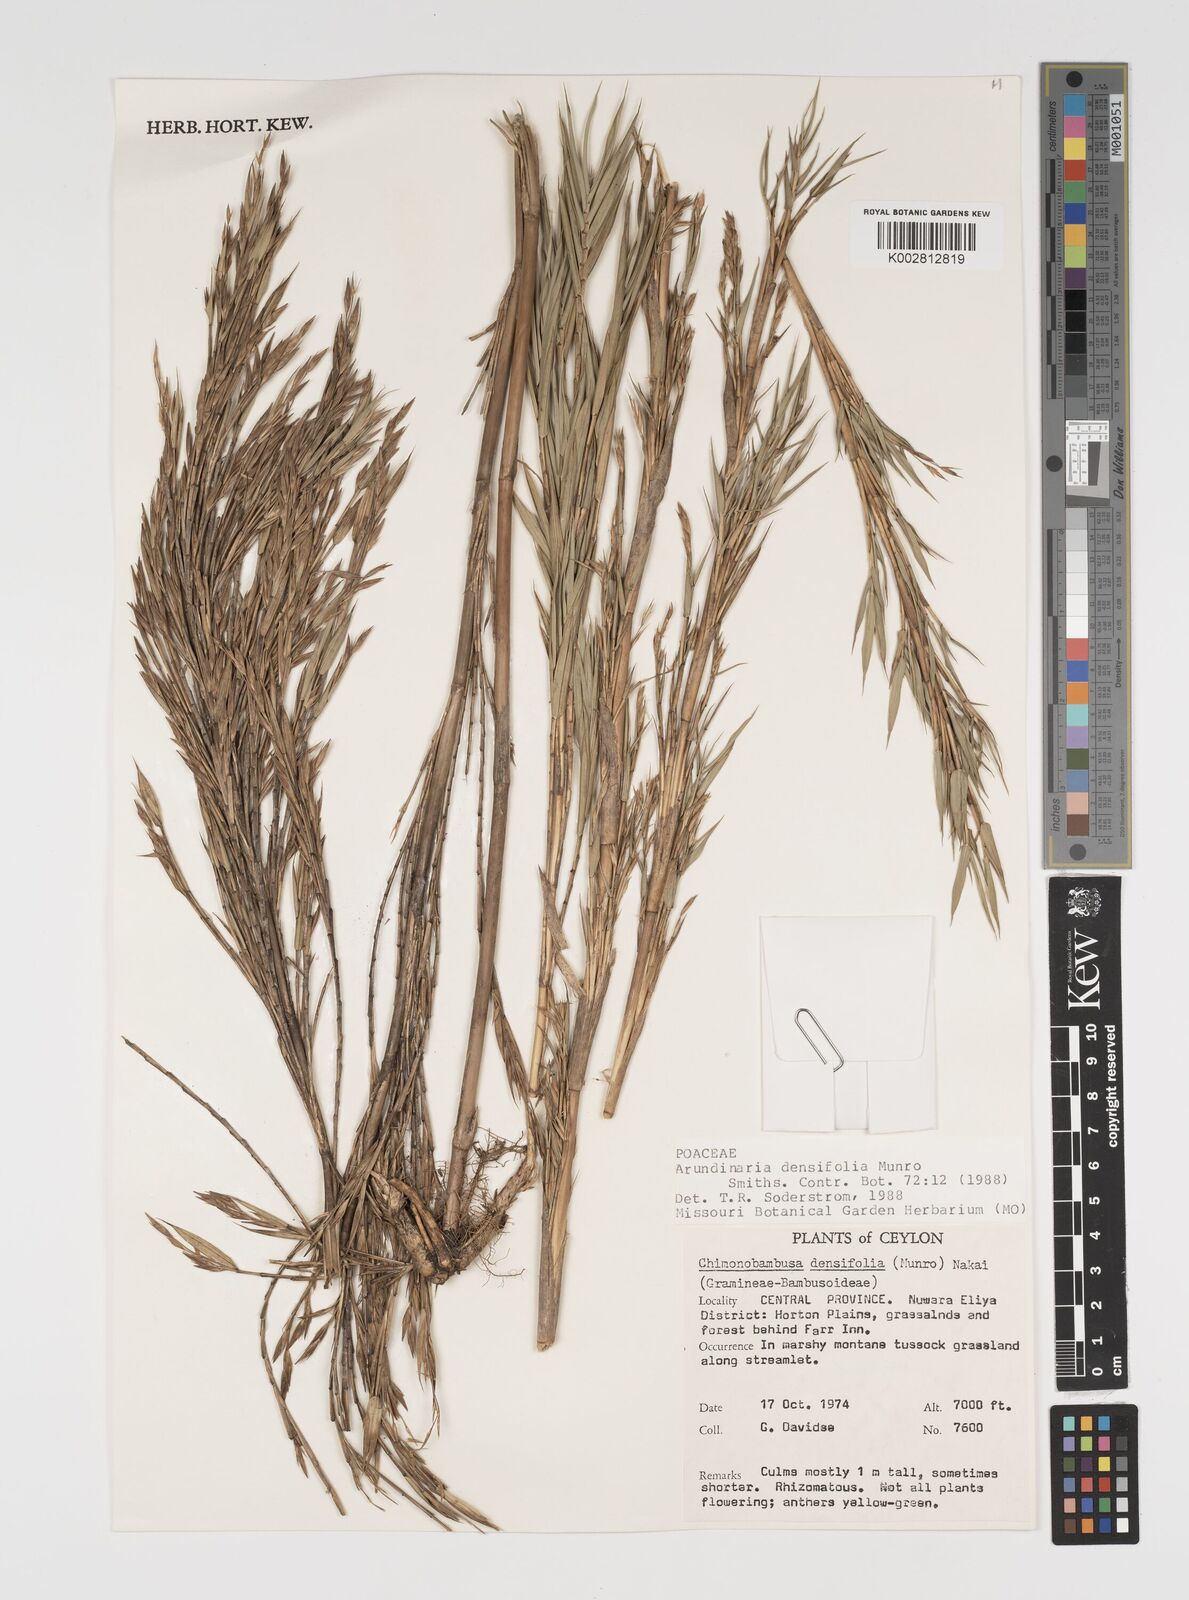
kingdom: Plantae
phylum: Tracheophyta
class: Liliopsida
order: Poales
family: Poaceae
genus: Kuruna
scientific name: Kuruna densifolia
